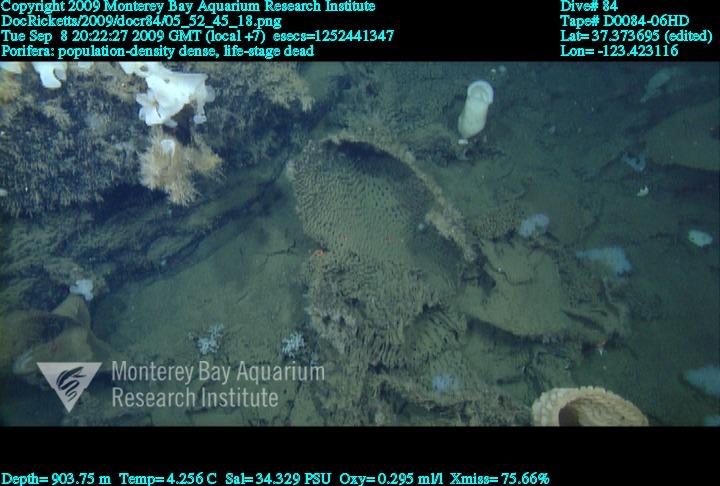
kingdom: Animalia
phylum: Porifera
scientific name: Porifera
